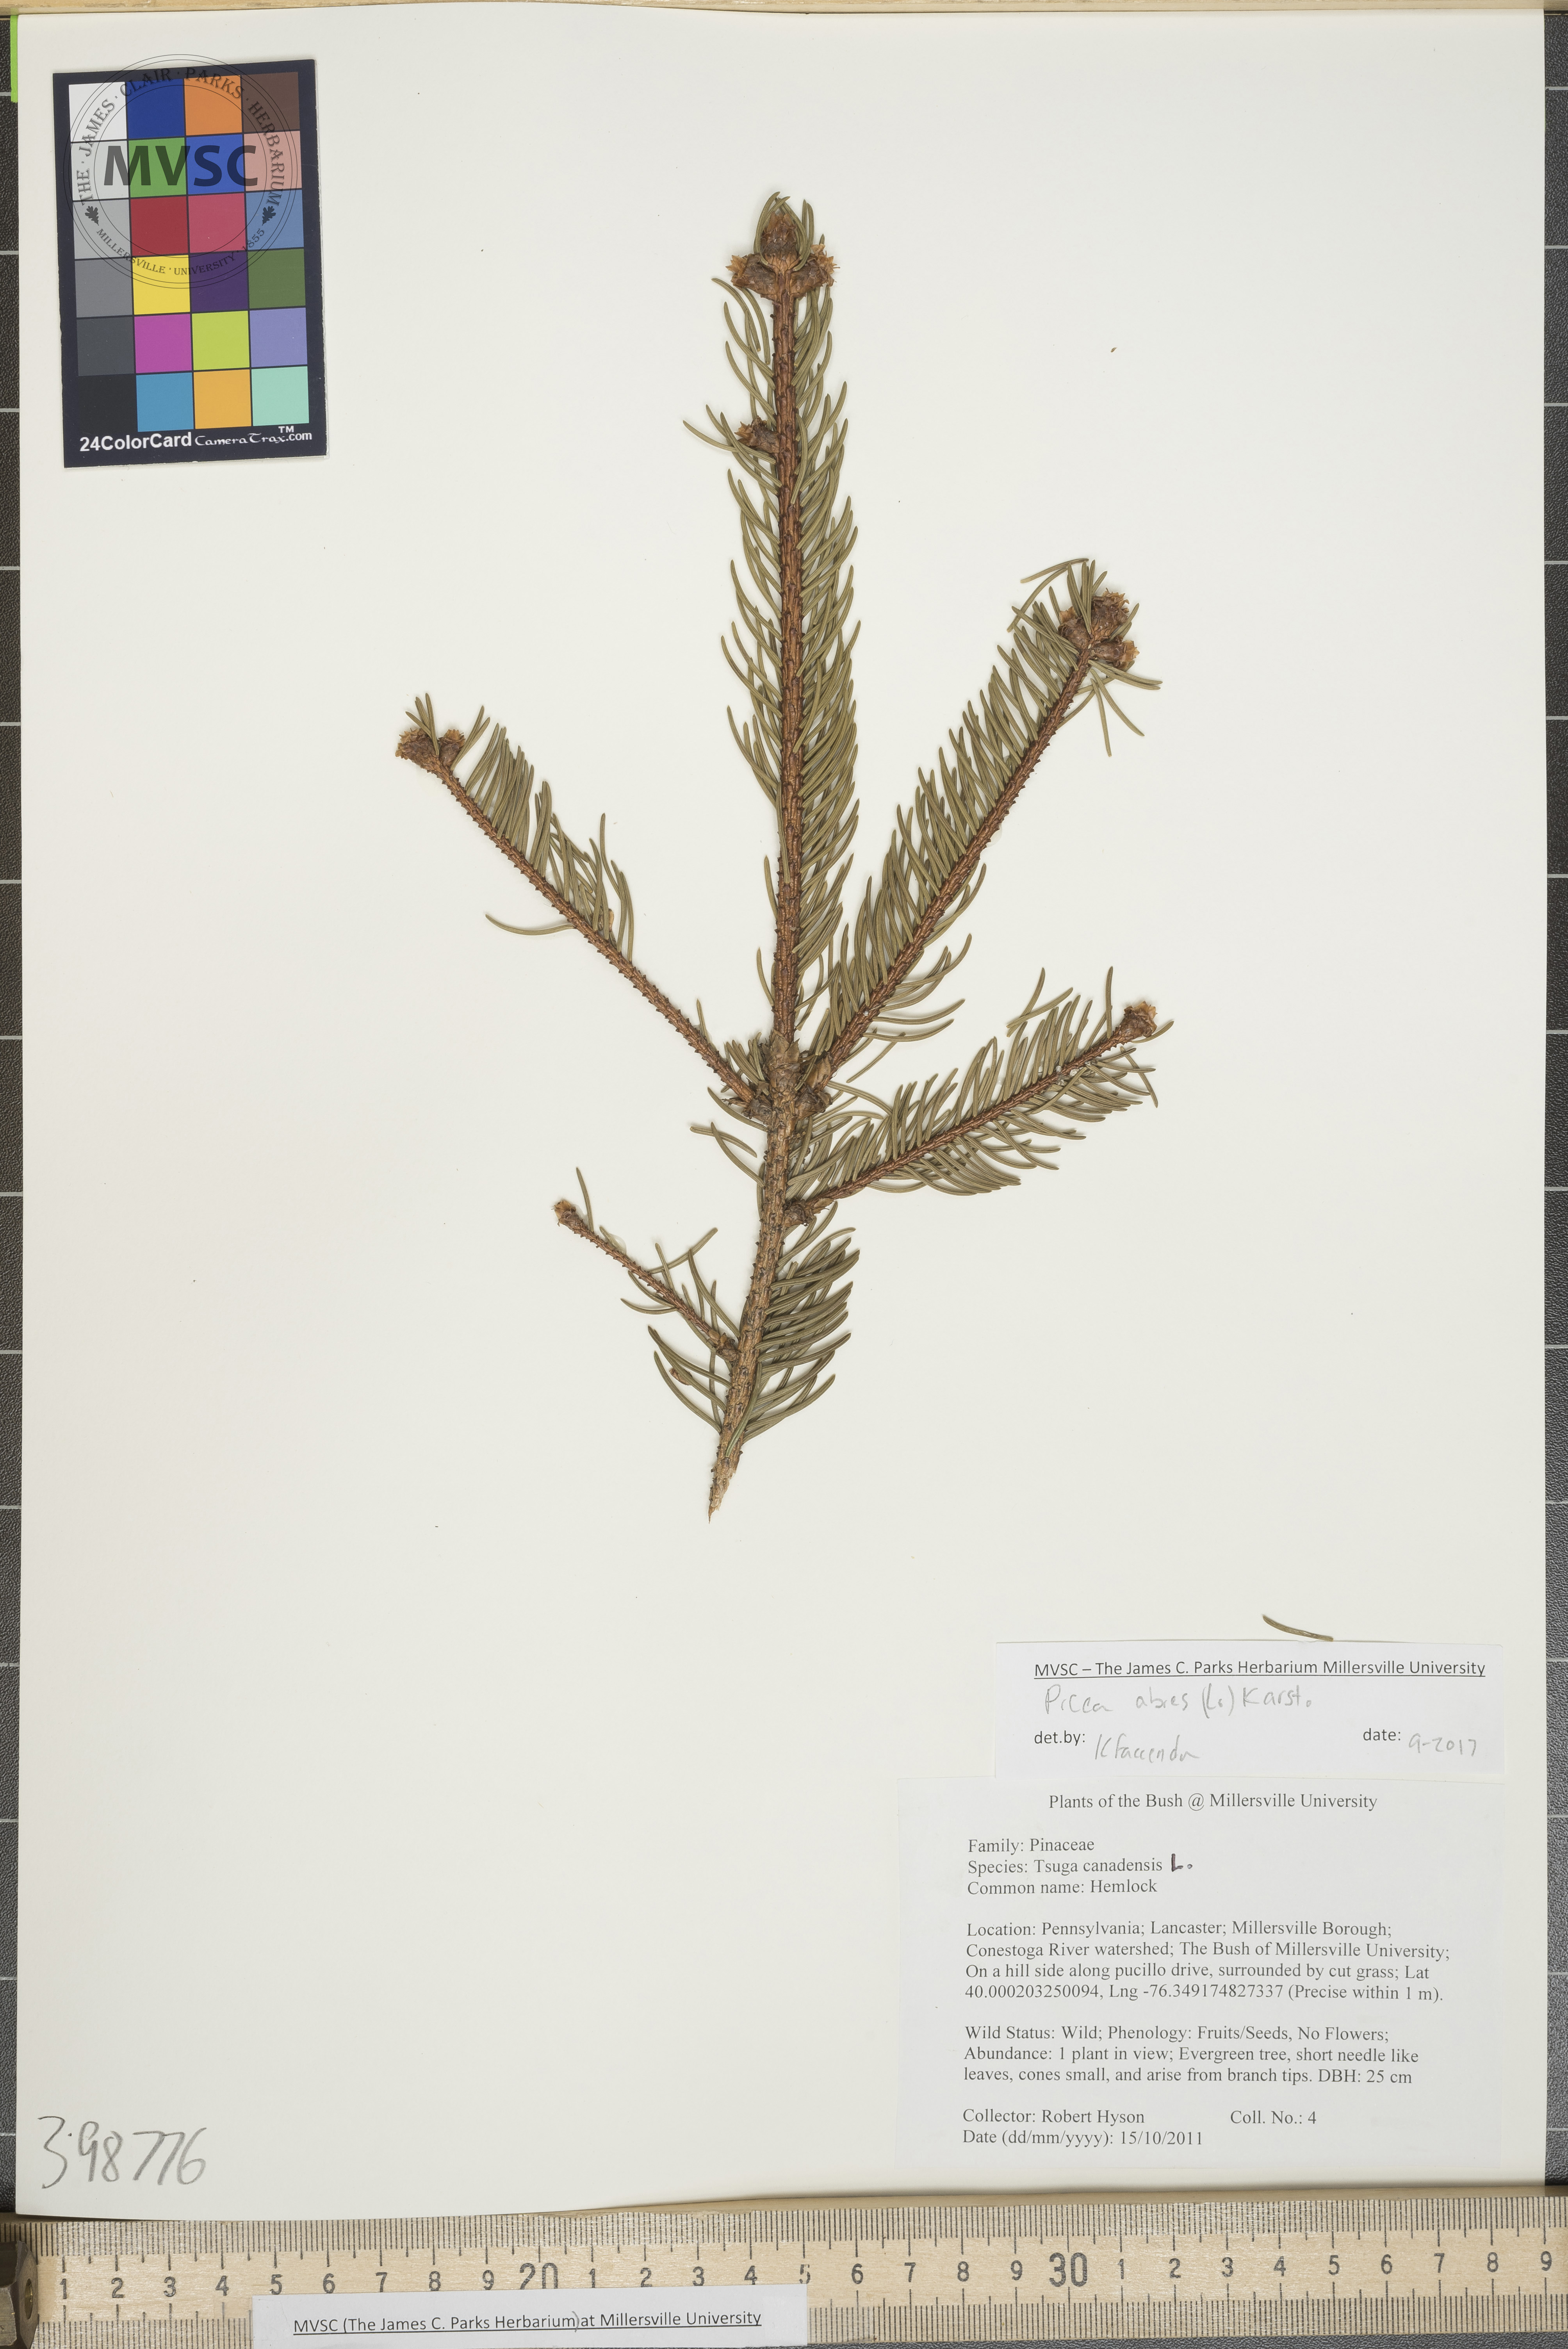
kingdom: Plantae
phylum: Tracheophyta
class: Pinopsida
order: Pinales
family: Pinaceae
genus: Picea
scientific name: Picea abies
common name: Norway spruce
